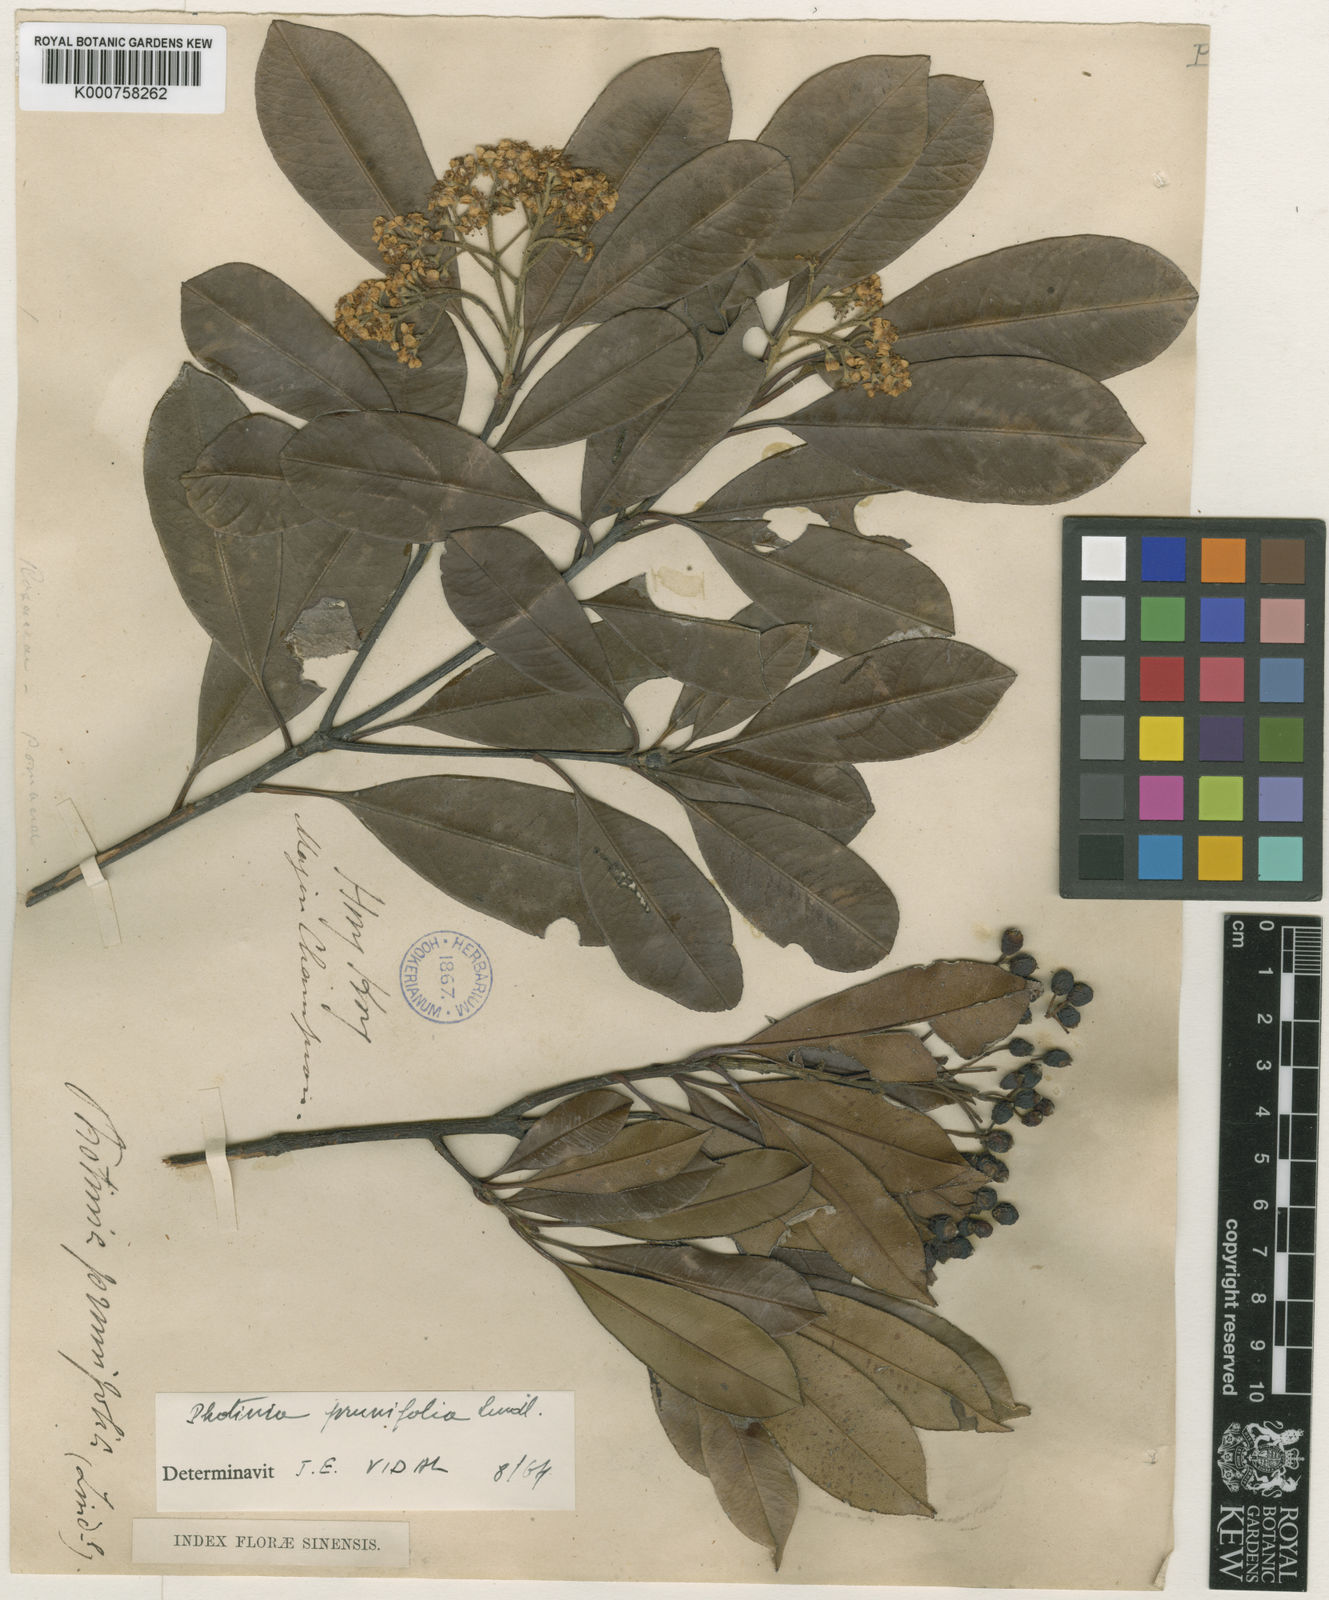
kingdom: Plantae
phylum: Tracheophyta
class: Magnoliopsida
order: Rosales
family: Rosaceae
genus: Photinia
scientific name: Photinia prunifolia
